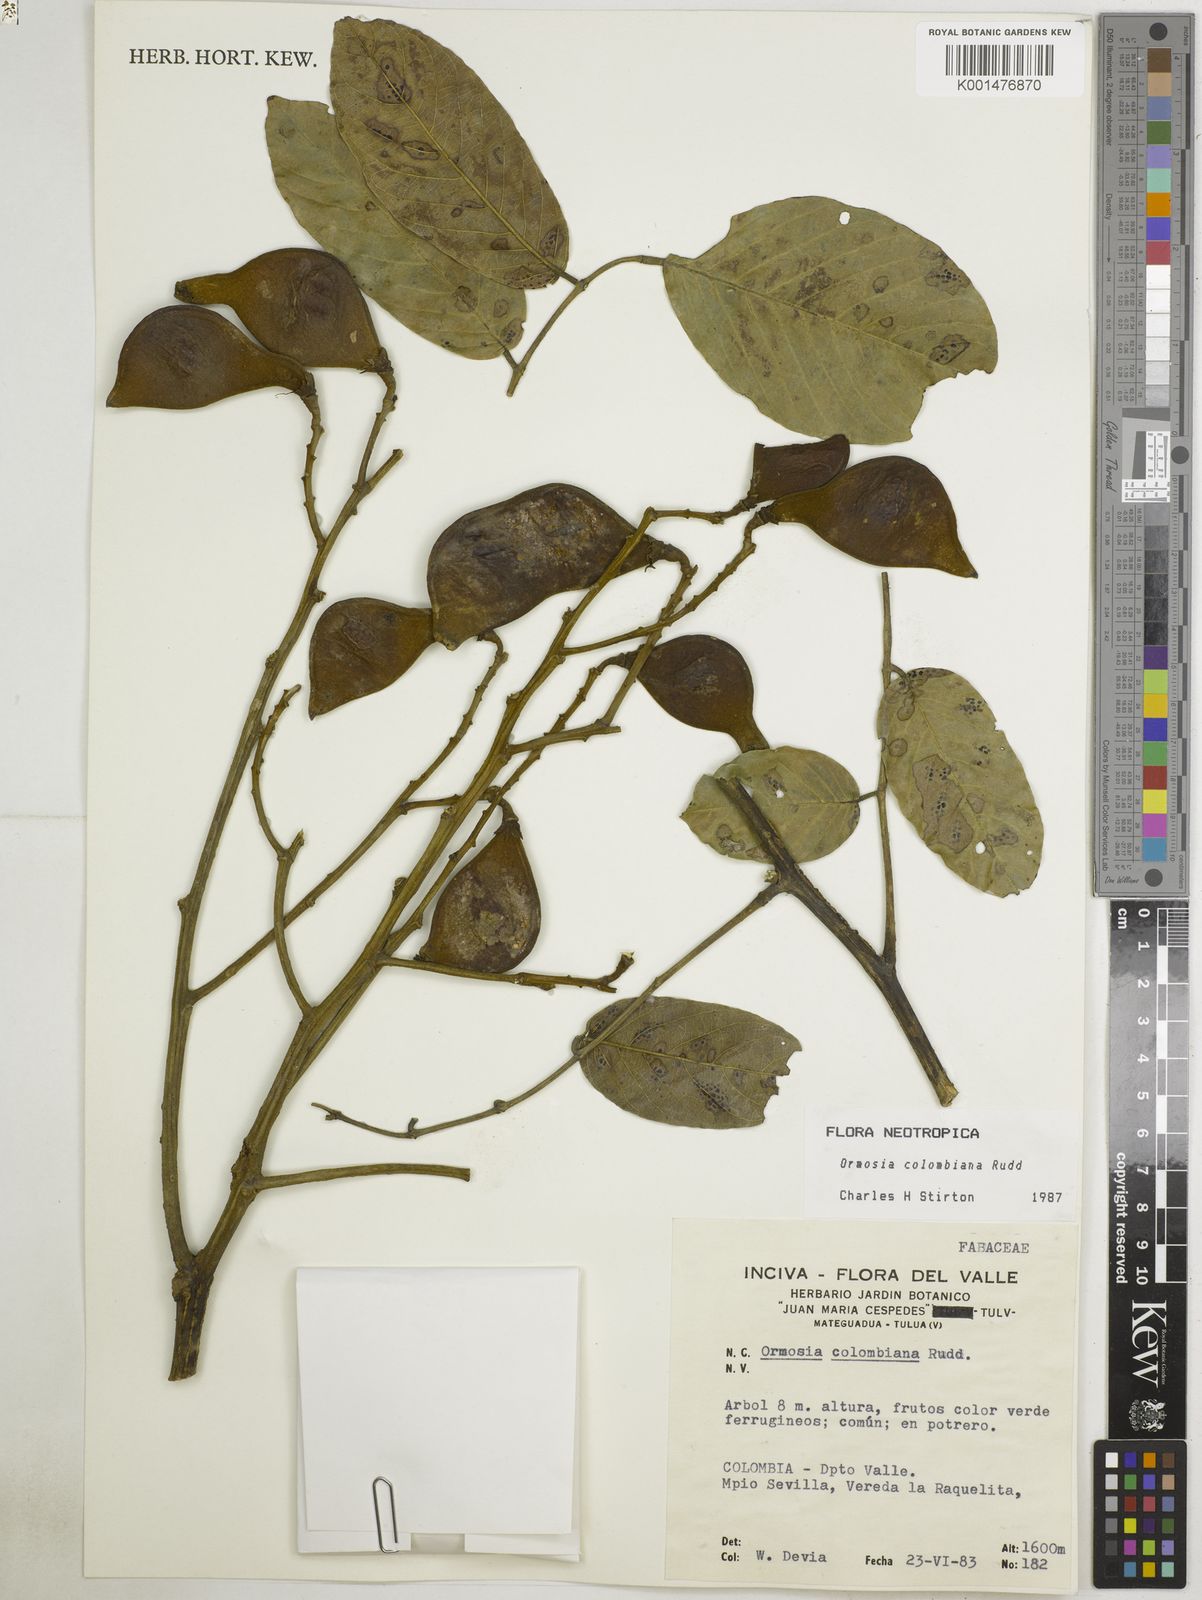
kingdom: Plantae
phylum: Tracheophyta
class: Magnoliopsida
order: Fabales
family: Fabaceae
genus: Ormosia
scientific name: Ormosia colombiana
